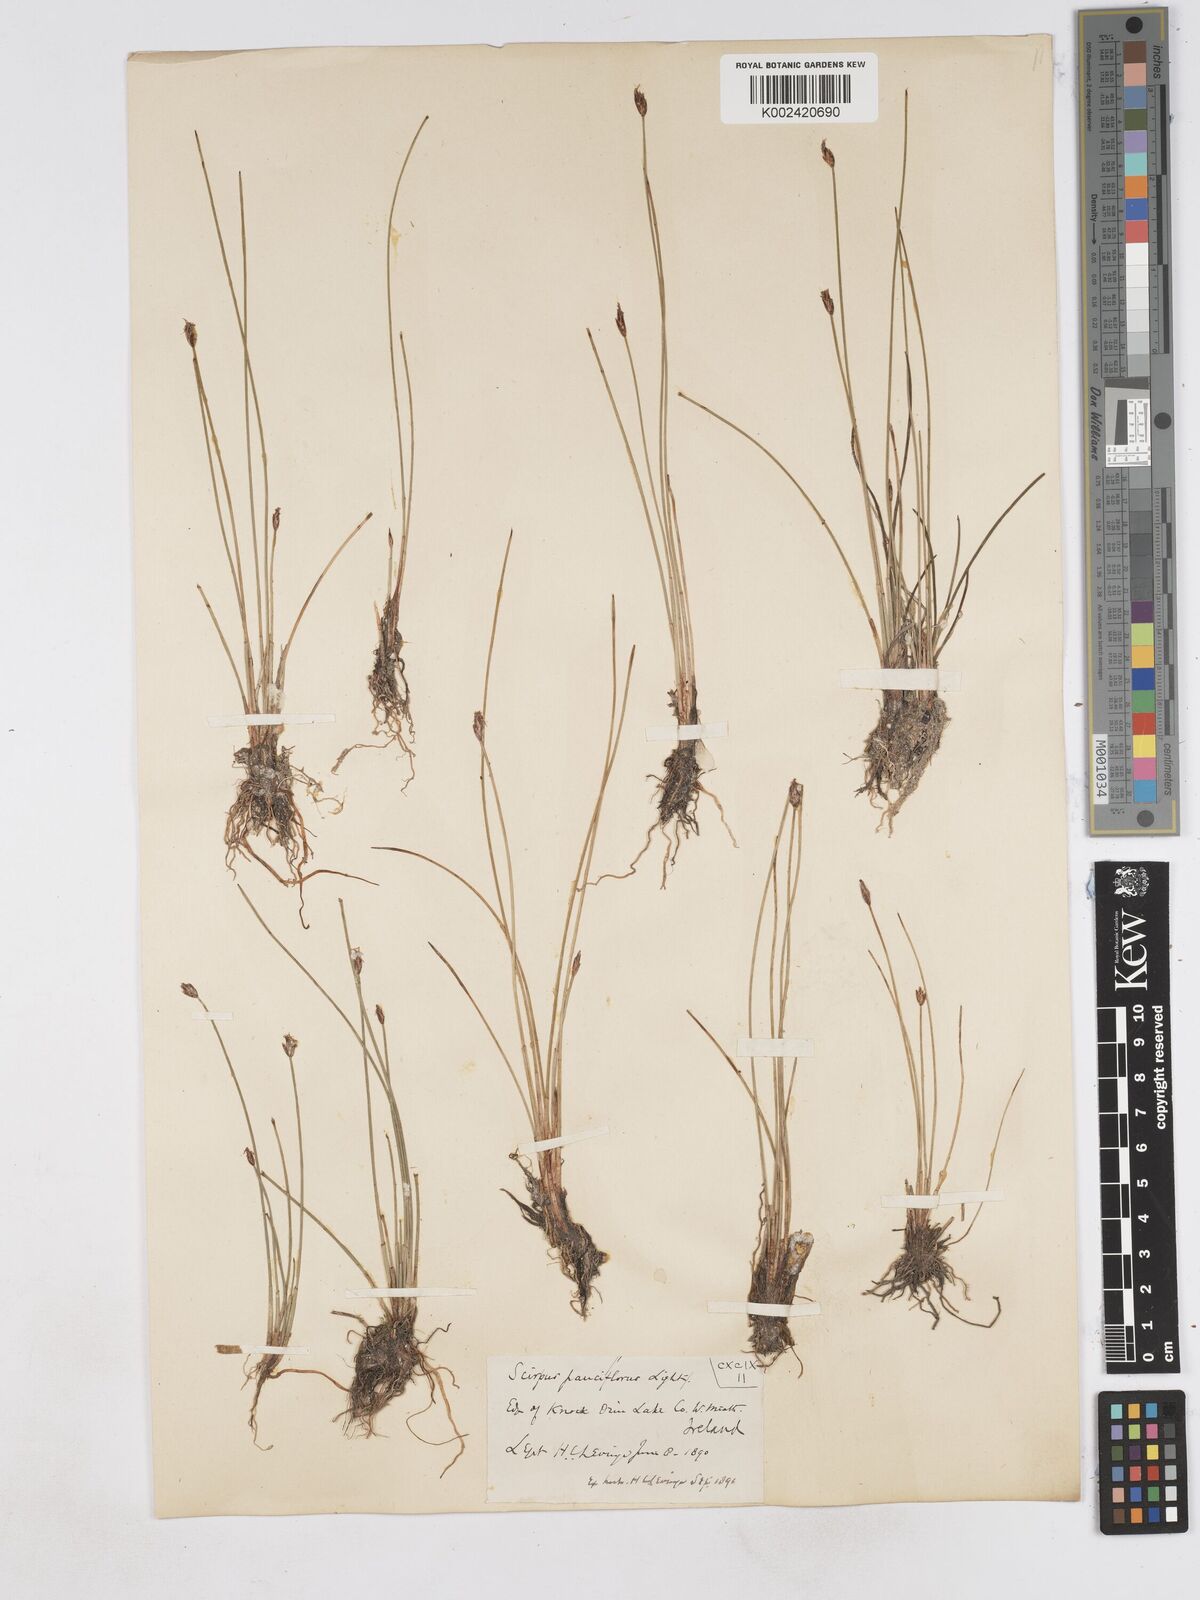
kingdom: Plantae
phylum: Tracheophyta
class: Liliopsida
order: Poales
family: Cyperaceae
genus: Eleocharis
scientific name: Eleocharis quinqueflora
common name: Few-flowered spike-rush
